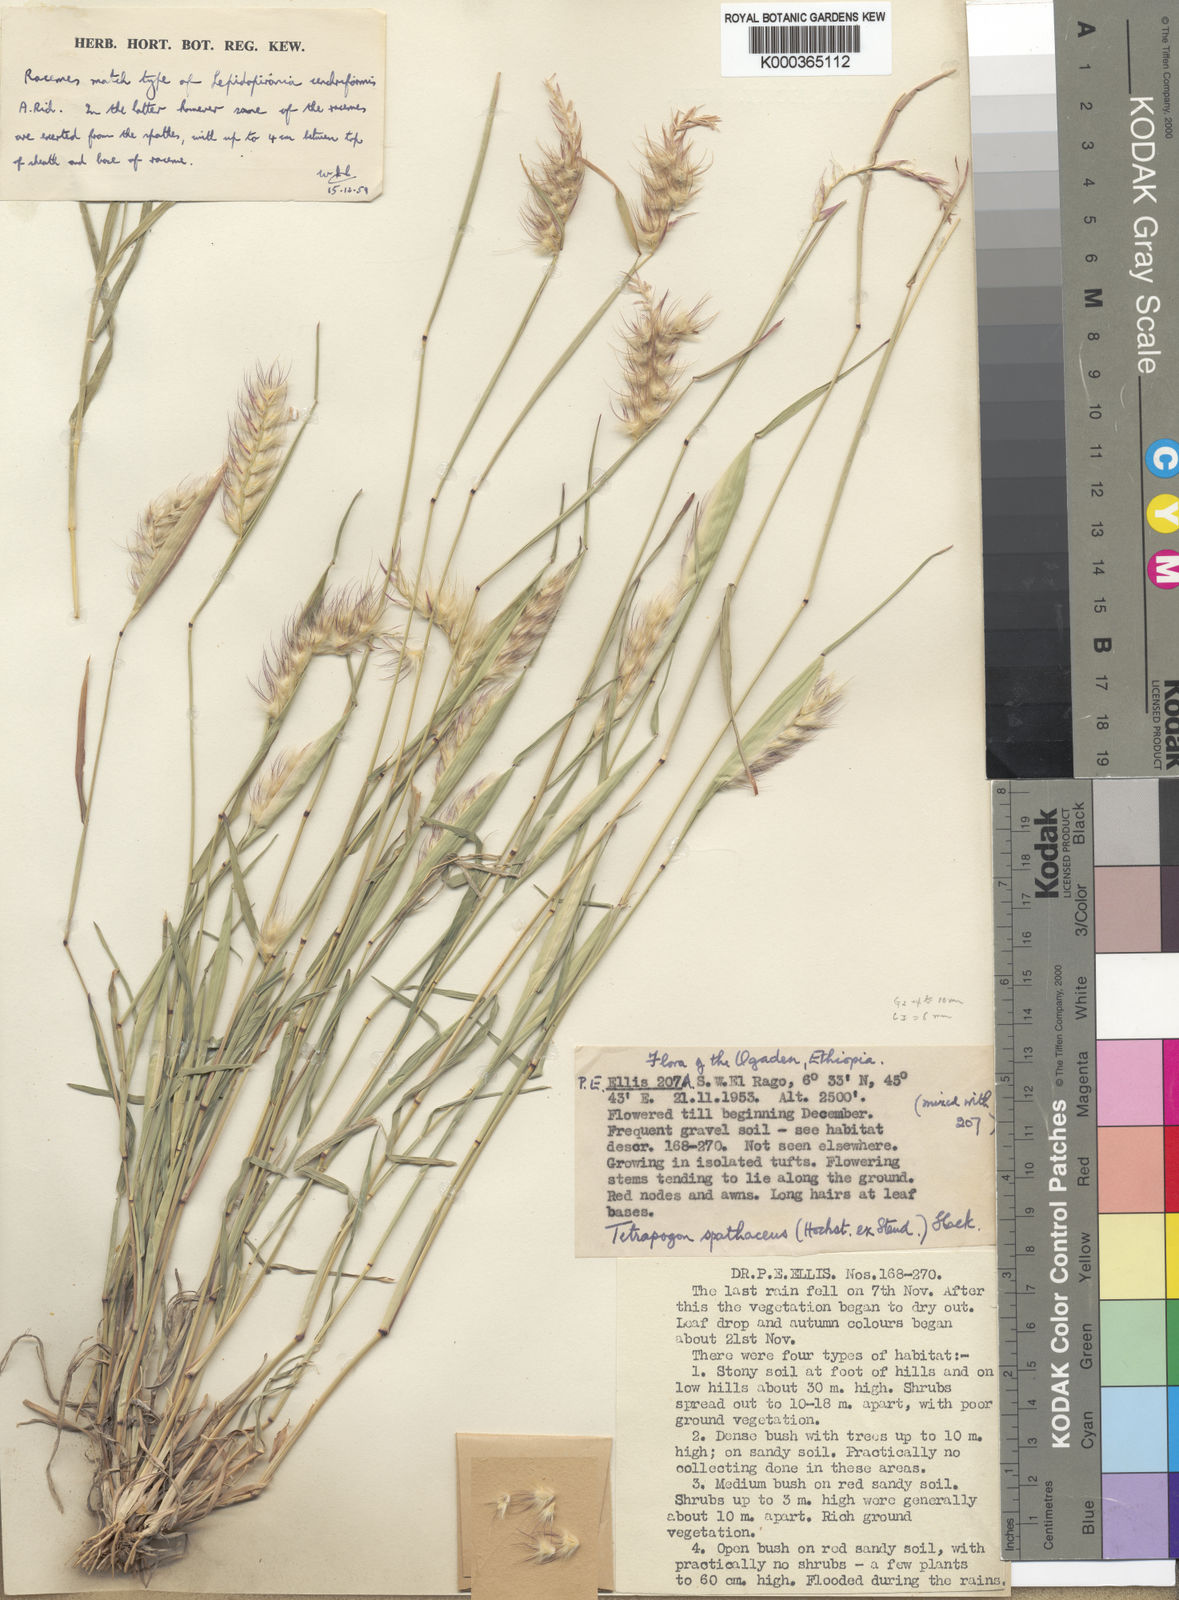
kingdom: Plantae
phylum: Tracheophyta
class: Liliopsida
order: Poales
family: Poaceae
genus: Tetrapogon
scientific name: Tetrapogon cenchriformis
